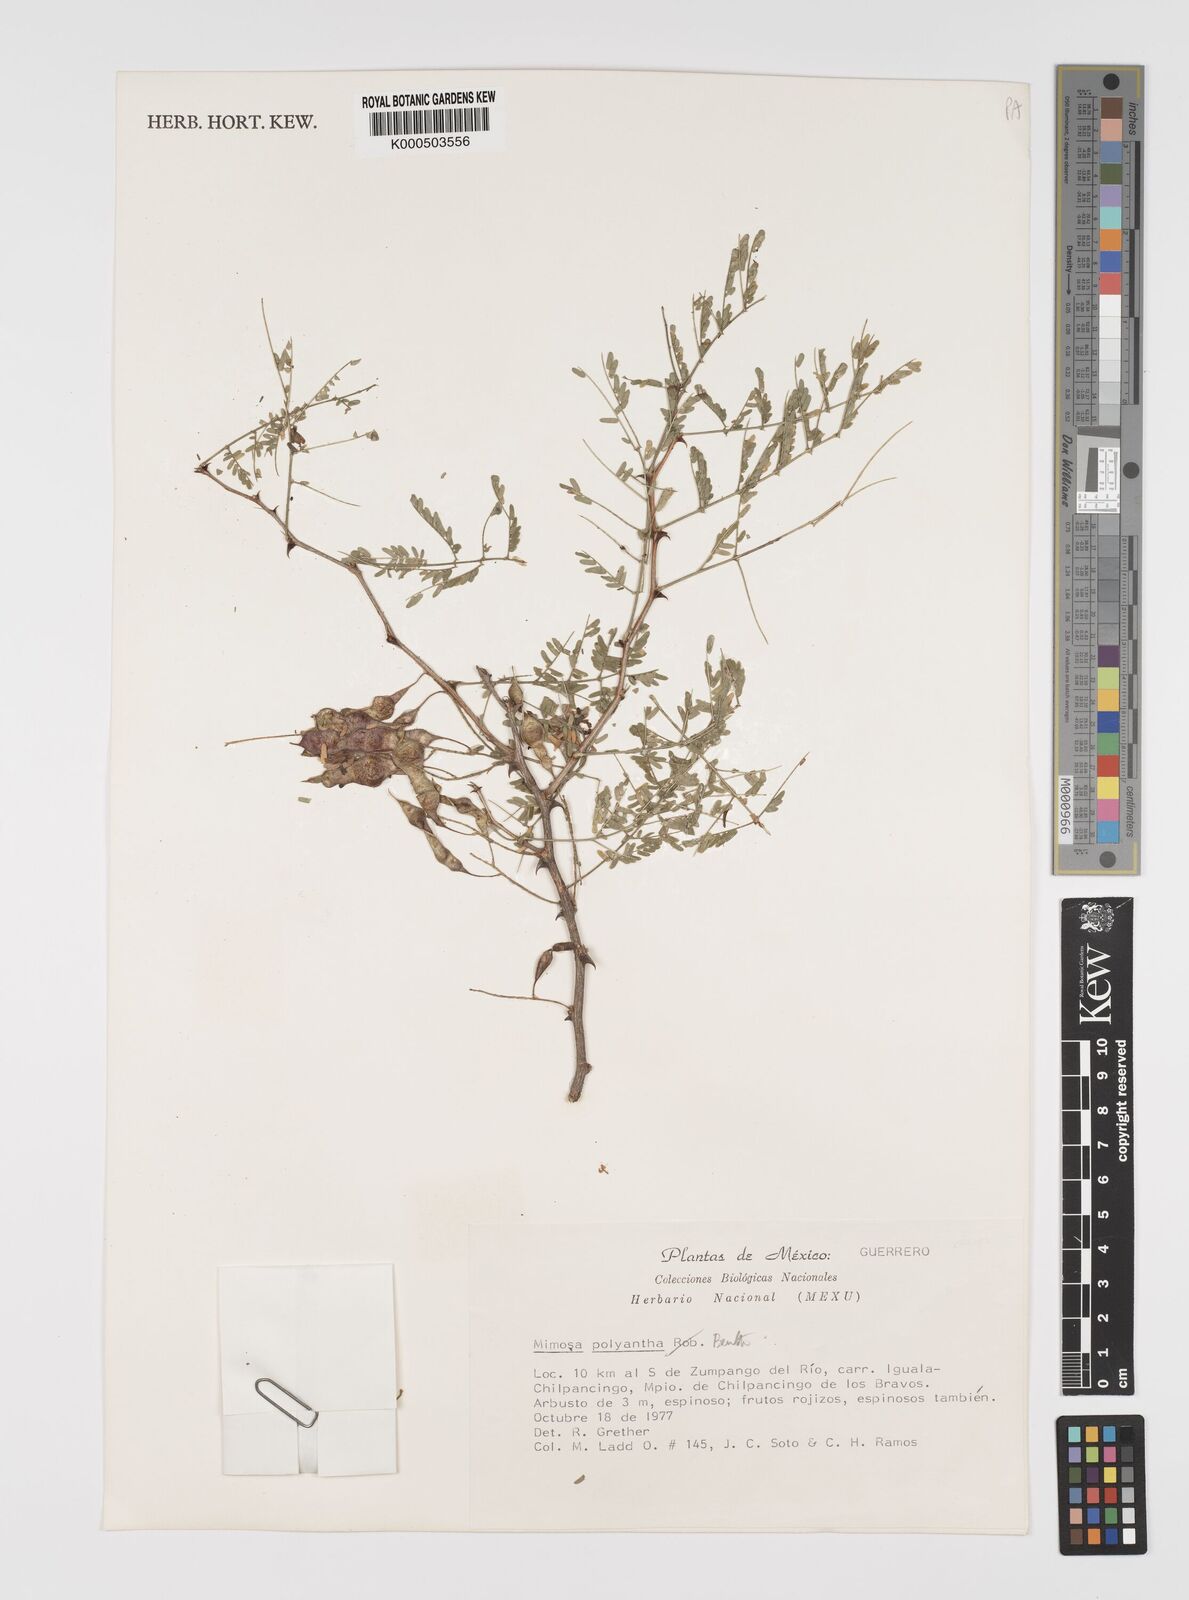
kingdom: Plantae
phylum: Tracheophyta
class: Magnoliopsida
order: Fabales
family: Fabaceae
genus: Mimosa
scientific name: Mimosa polyantha
